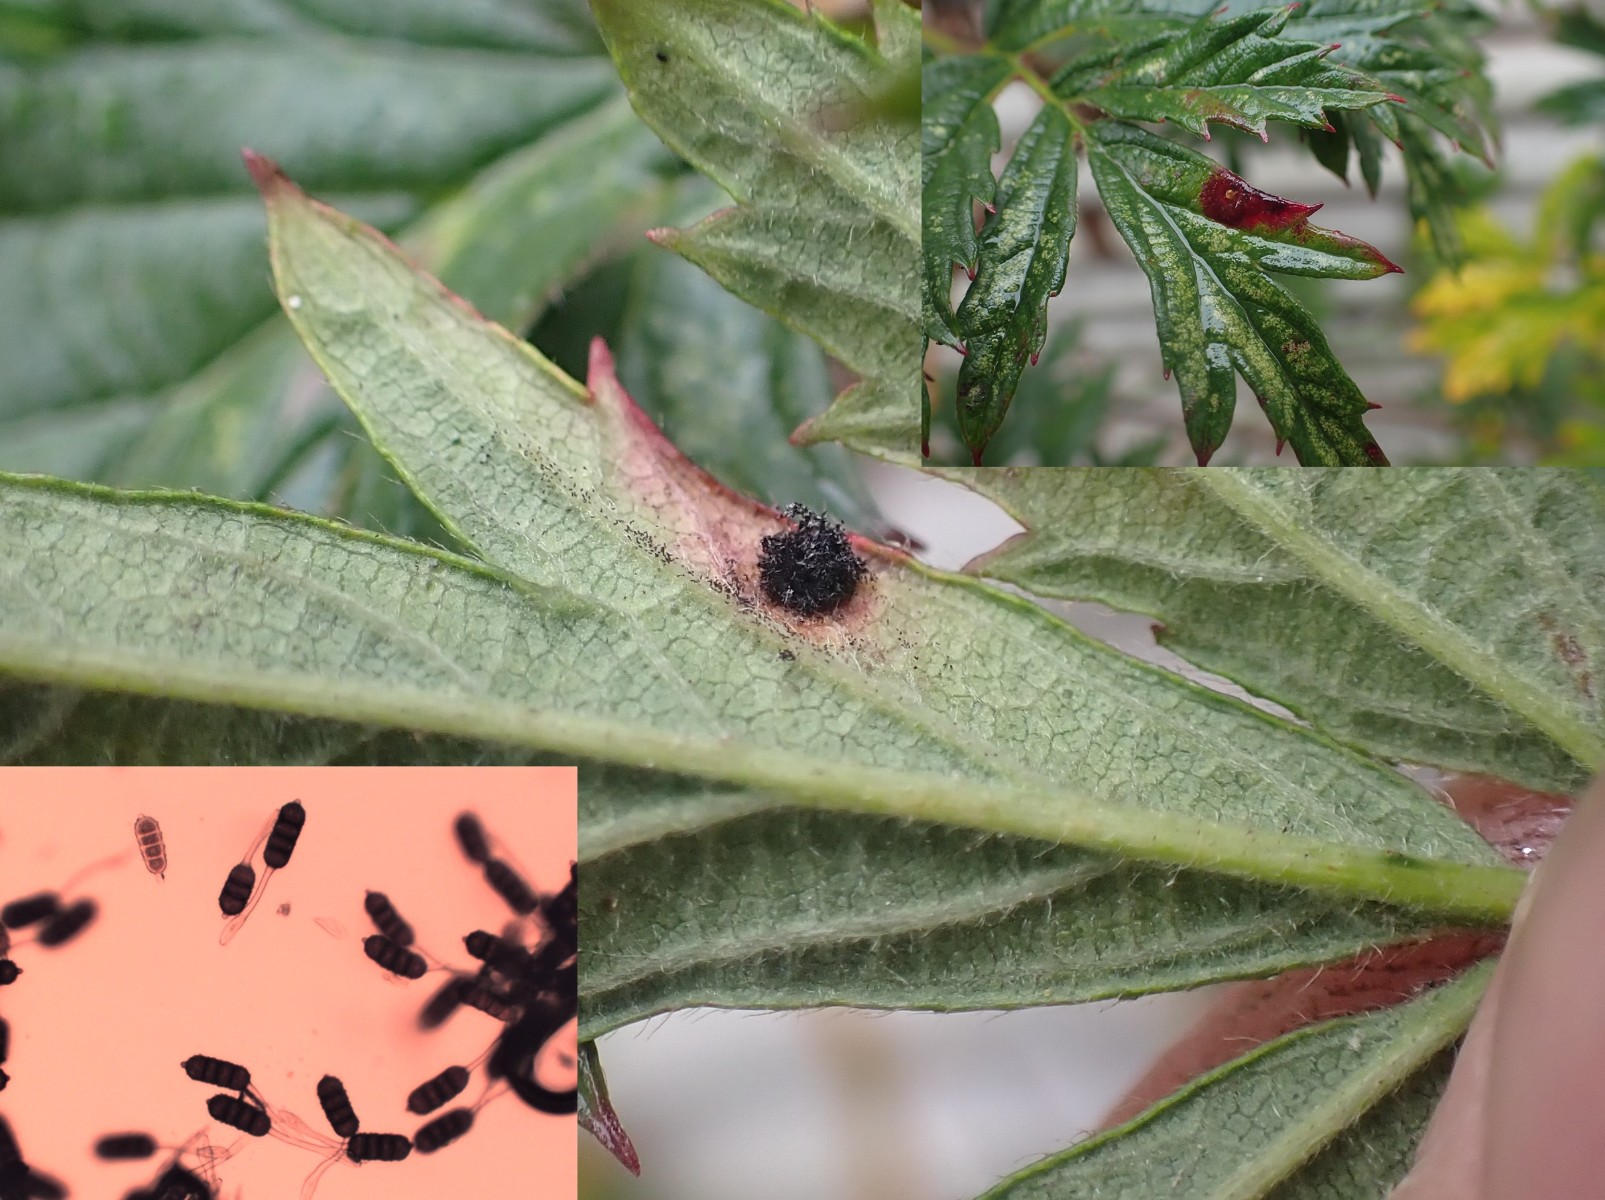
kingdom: Fungi
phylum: Basidiomycota
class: Pucciniomycetes
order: Pucciniales
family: Phragmidiaceae
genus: Phragmidium
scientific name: Phragmidium violaceum
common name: violet flercellerust
